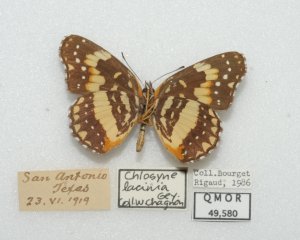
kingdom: Animalia
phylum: Arthropoda
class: Insecta
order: Lepidoptera
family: Nymphalidae
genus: Chlosyne
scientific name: Chlosyne lacinia
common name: Bordered Patch
